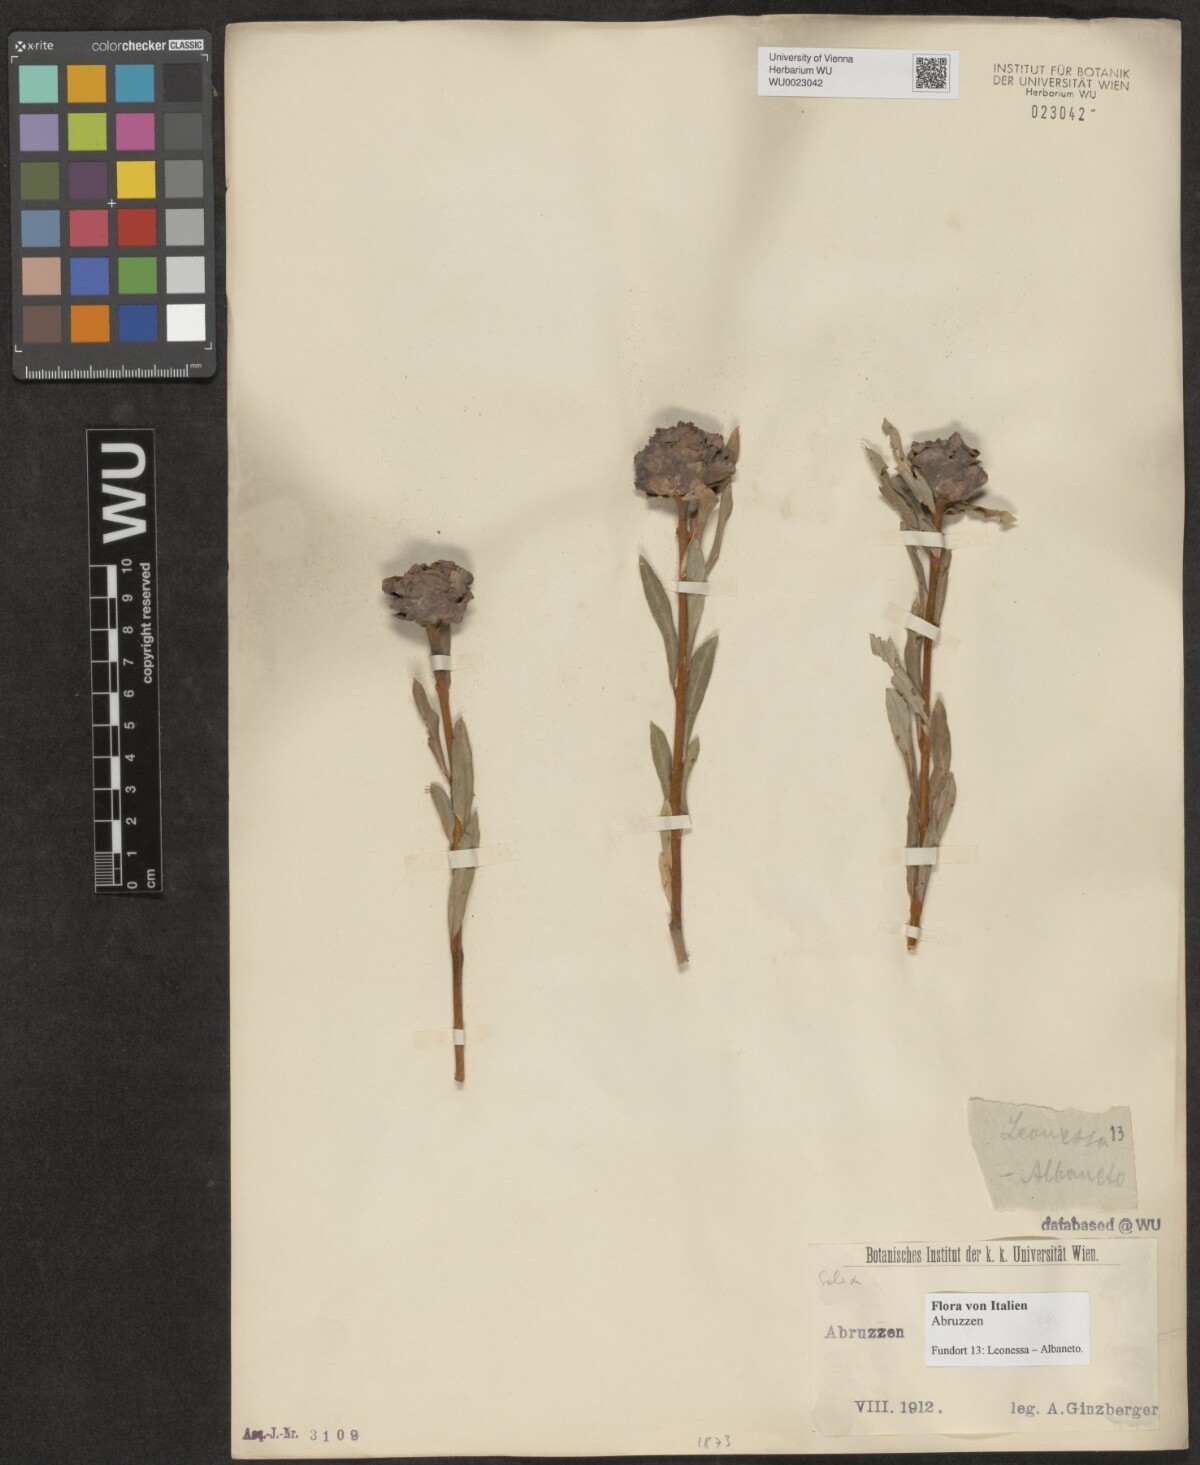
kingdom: Plantae
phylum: Tracheophyta
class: Magnoliopsida
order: Malpighiales
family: Salicaceae
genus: Salix
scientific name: Salix
